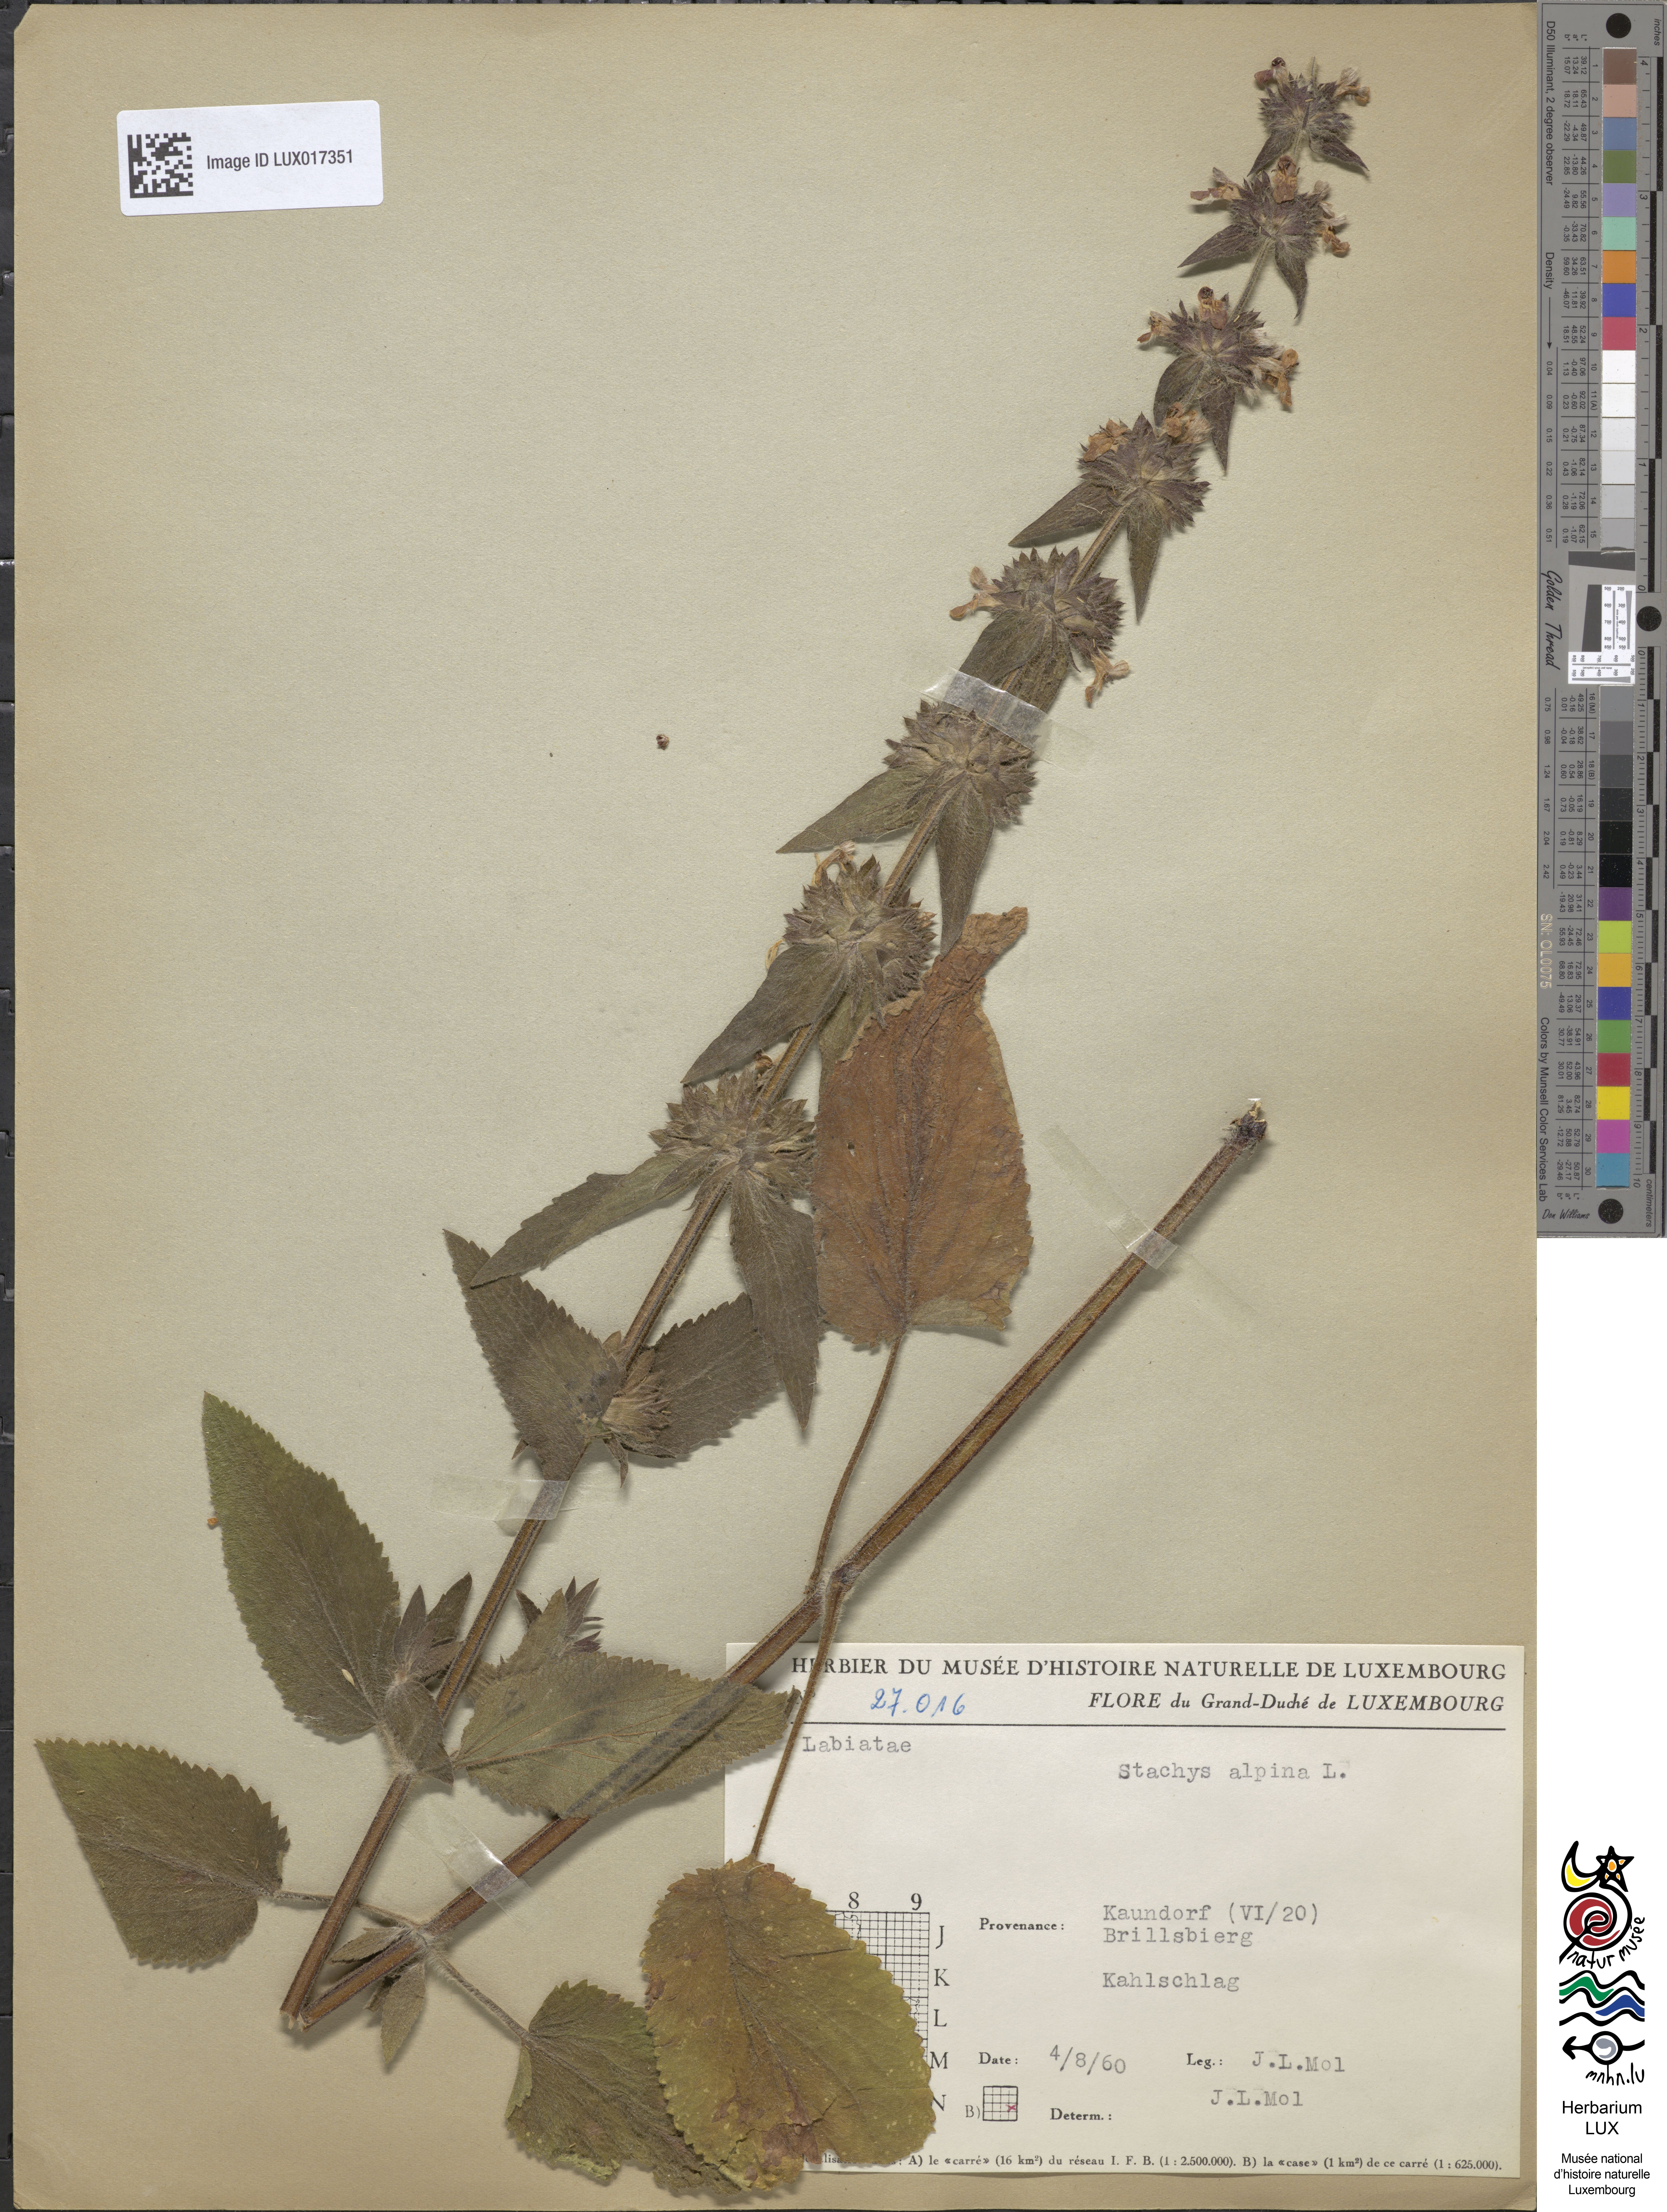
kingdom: Plantae
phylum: Tracheophyta
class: Magnoliopsida
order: Lamiales
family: Lamiaceae
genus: Stachys
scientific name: Stachys alpina
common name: Limestone woundwort
